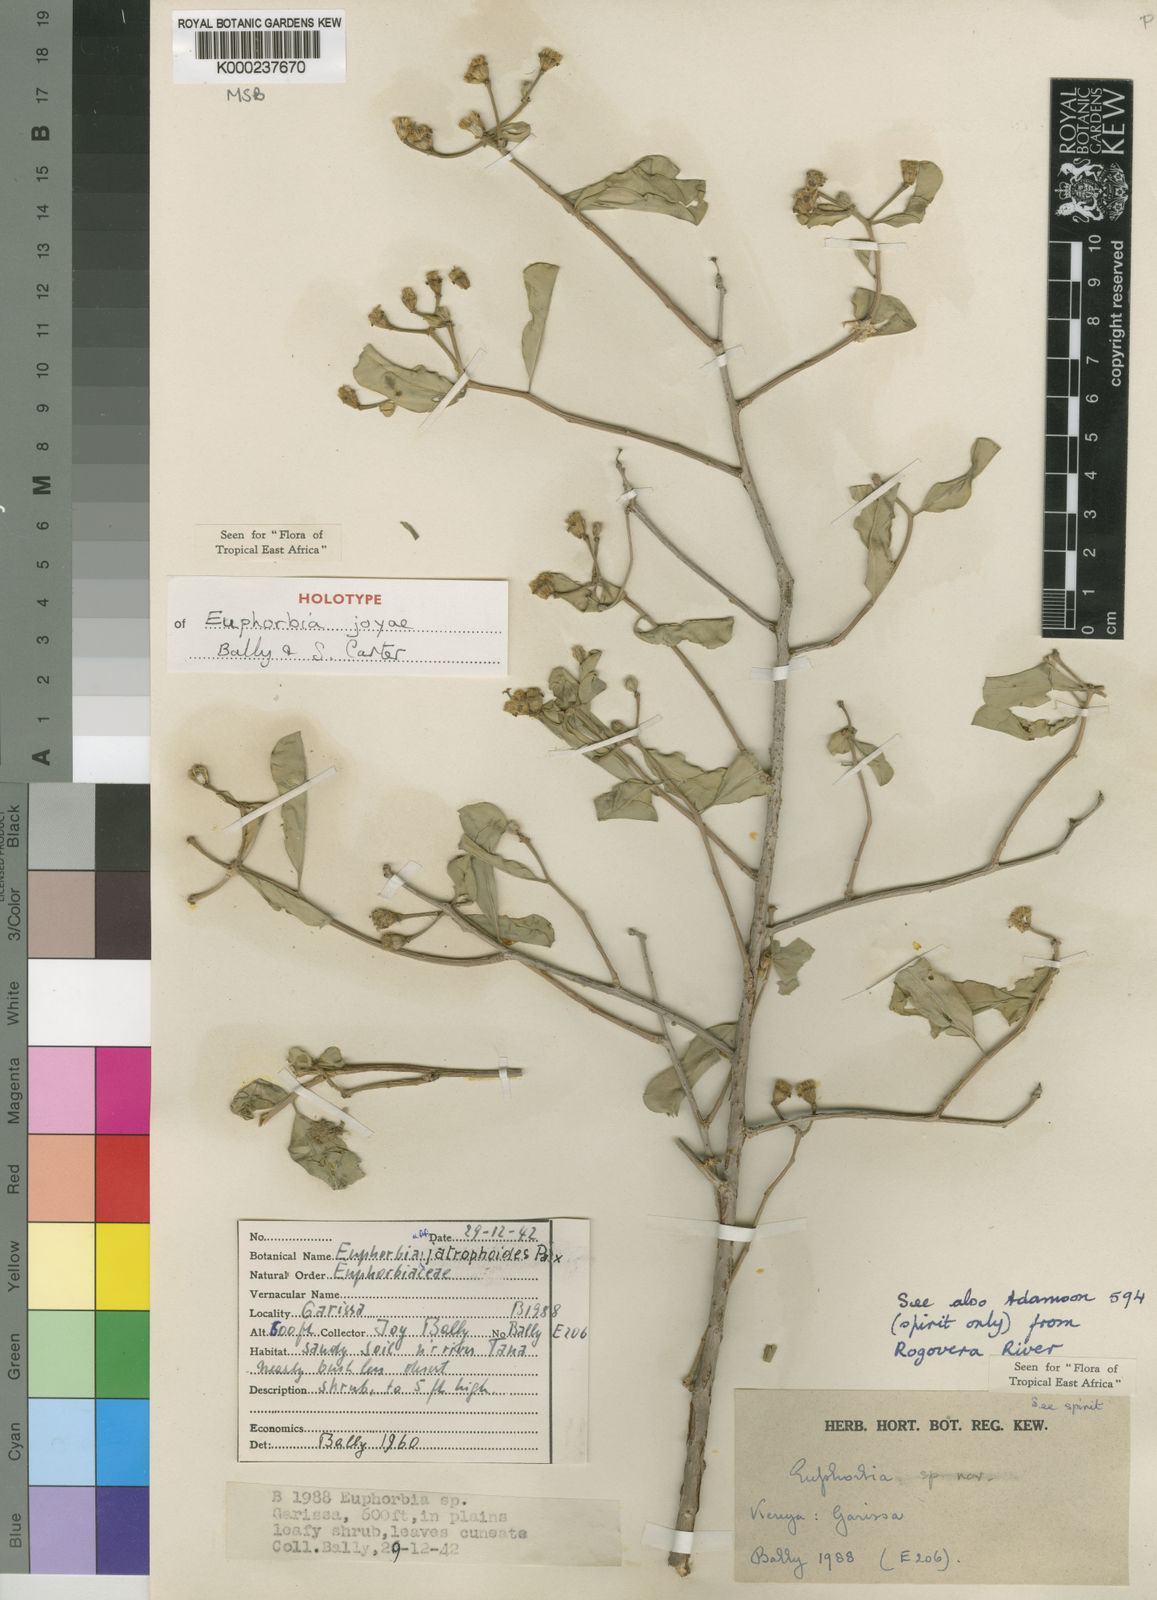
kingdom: Plantae
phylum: Tracheophyta
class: Magnoliopsida
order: Malpighiales
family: Euphorbiaceae
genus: Euphorbia
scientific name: Euphorbia joyae
